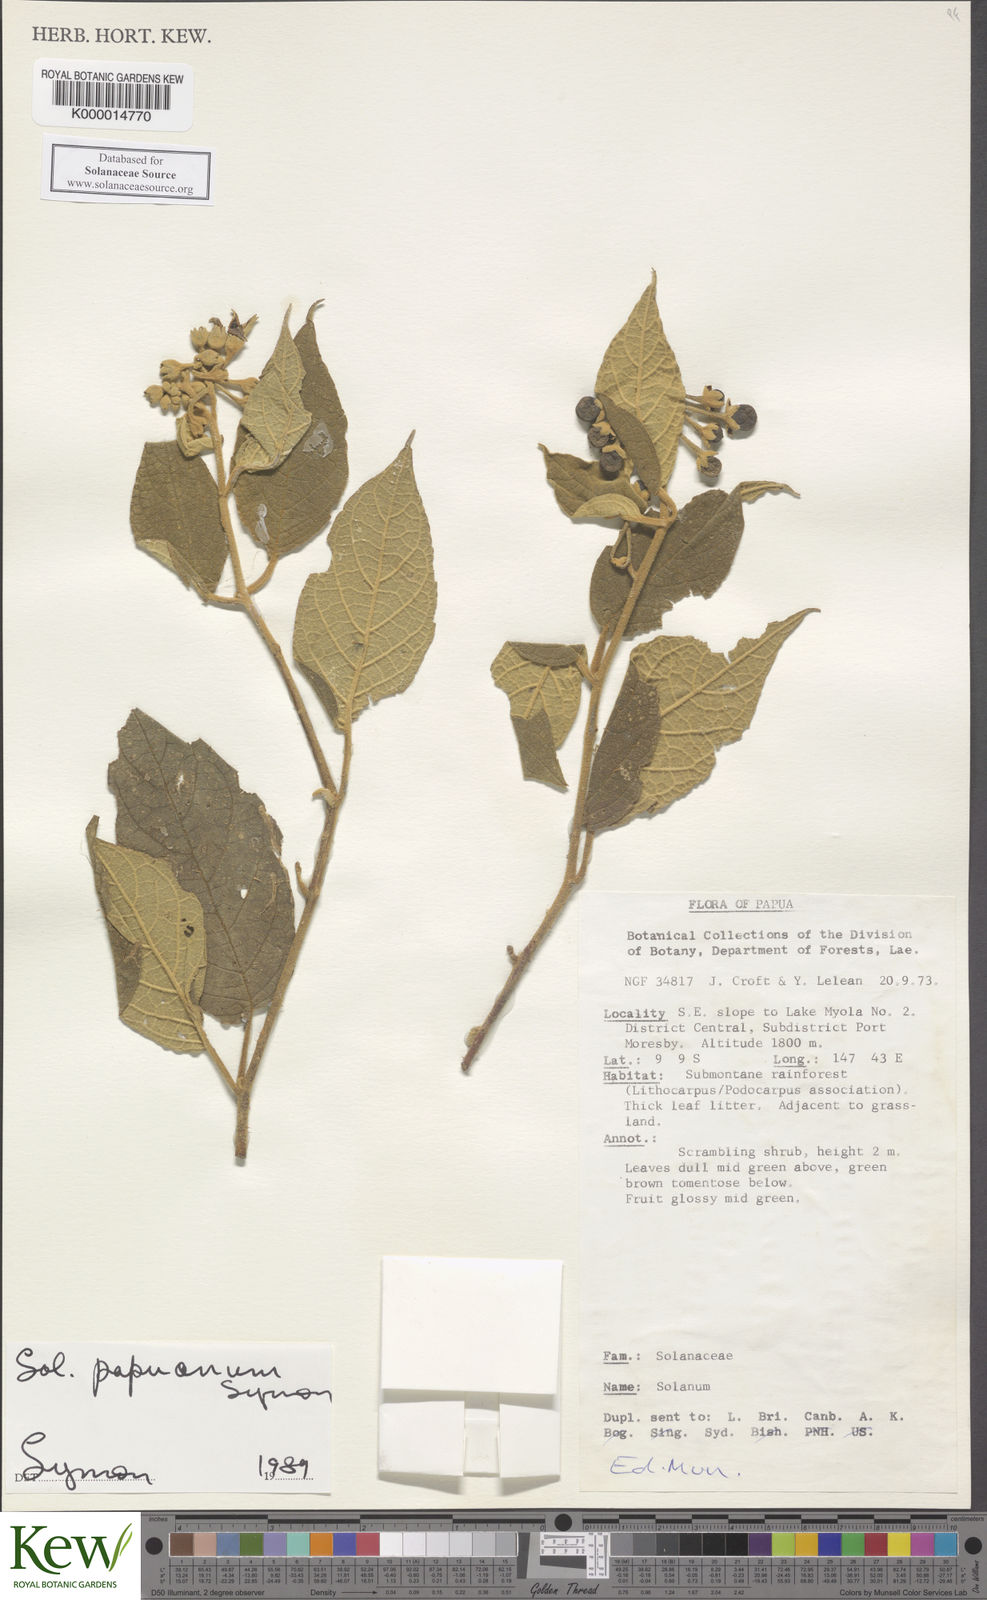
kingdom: Plantae
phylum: Tracheophyta
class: Magnoliopsida
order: Solanales
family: Solanaceae
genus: Solanum
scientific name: Solanum papuanum
